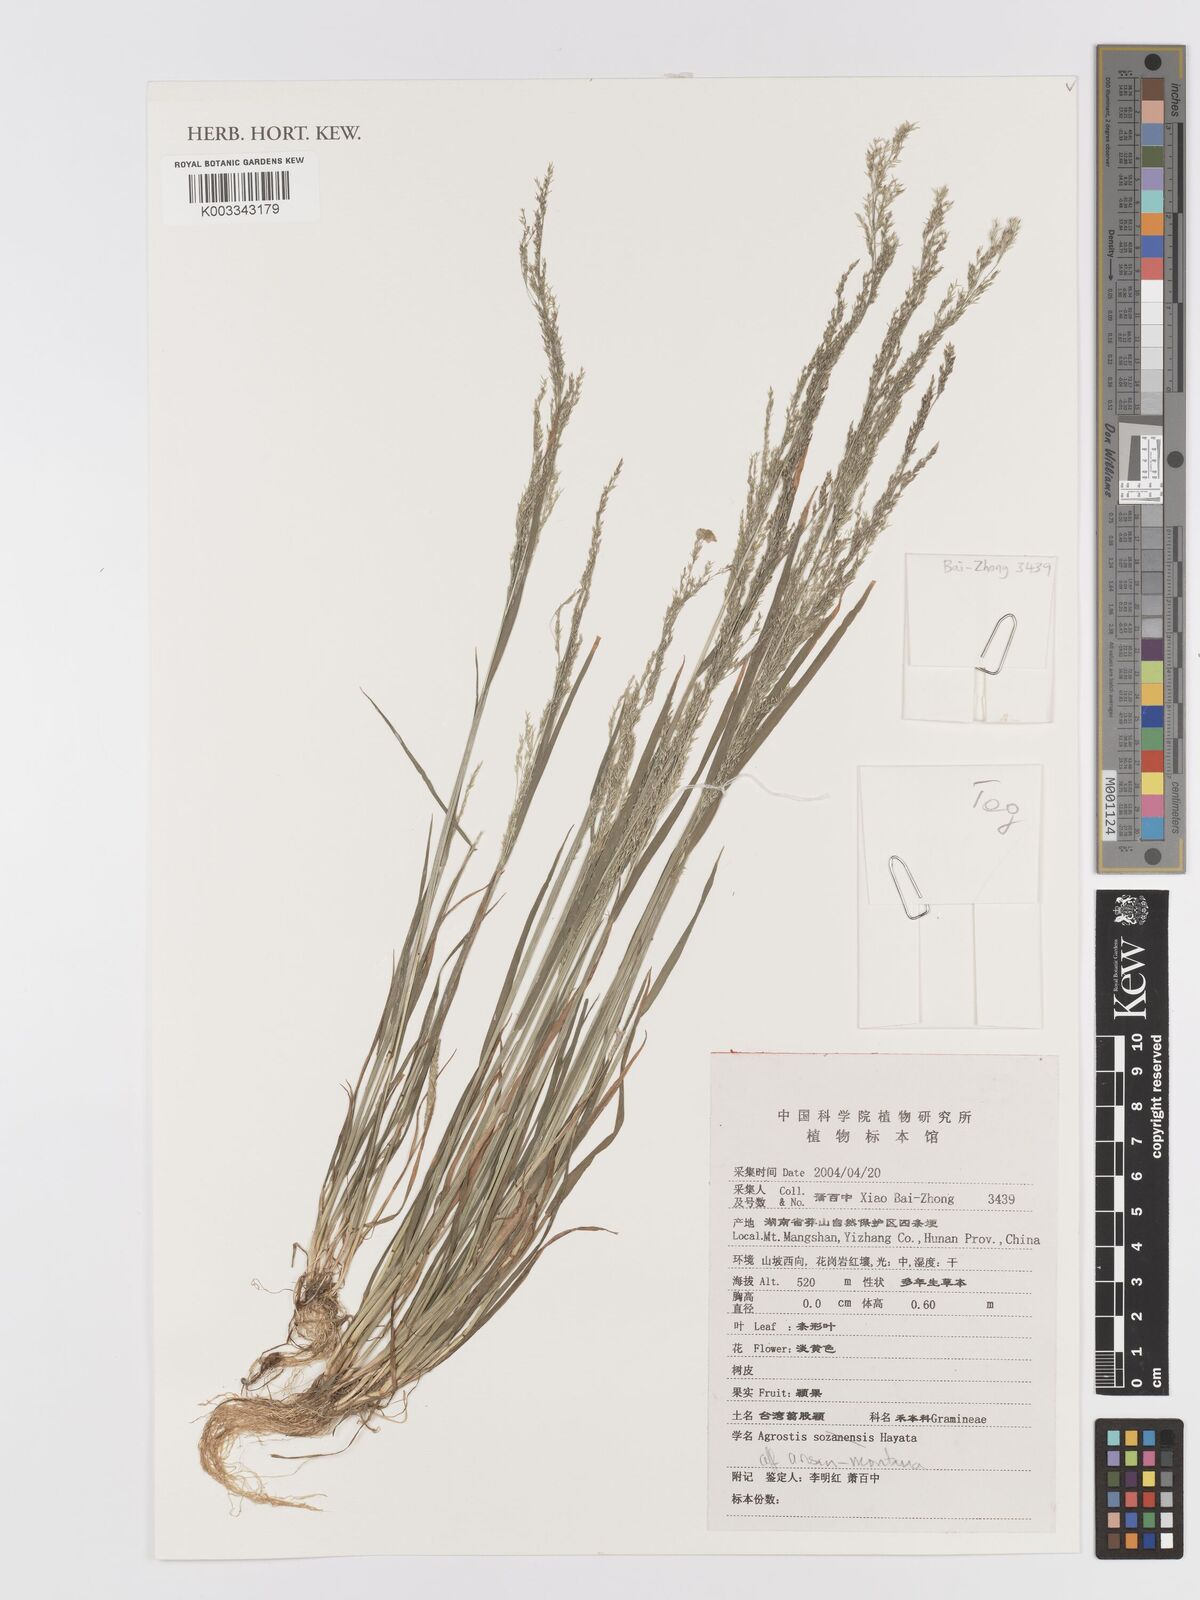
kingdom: Plantae
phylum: Tracheophyta
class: Liliopsida
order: Poales
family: Poaceae
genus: Agrostis
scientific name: Agrostis infirma
